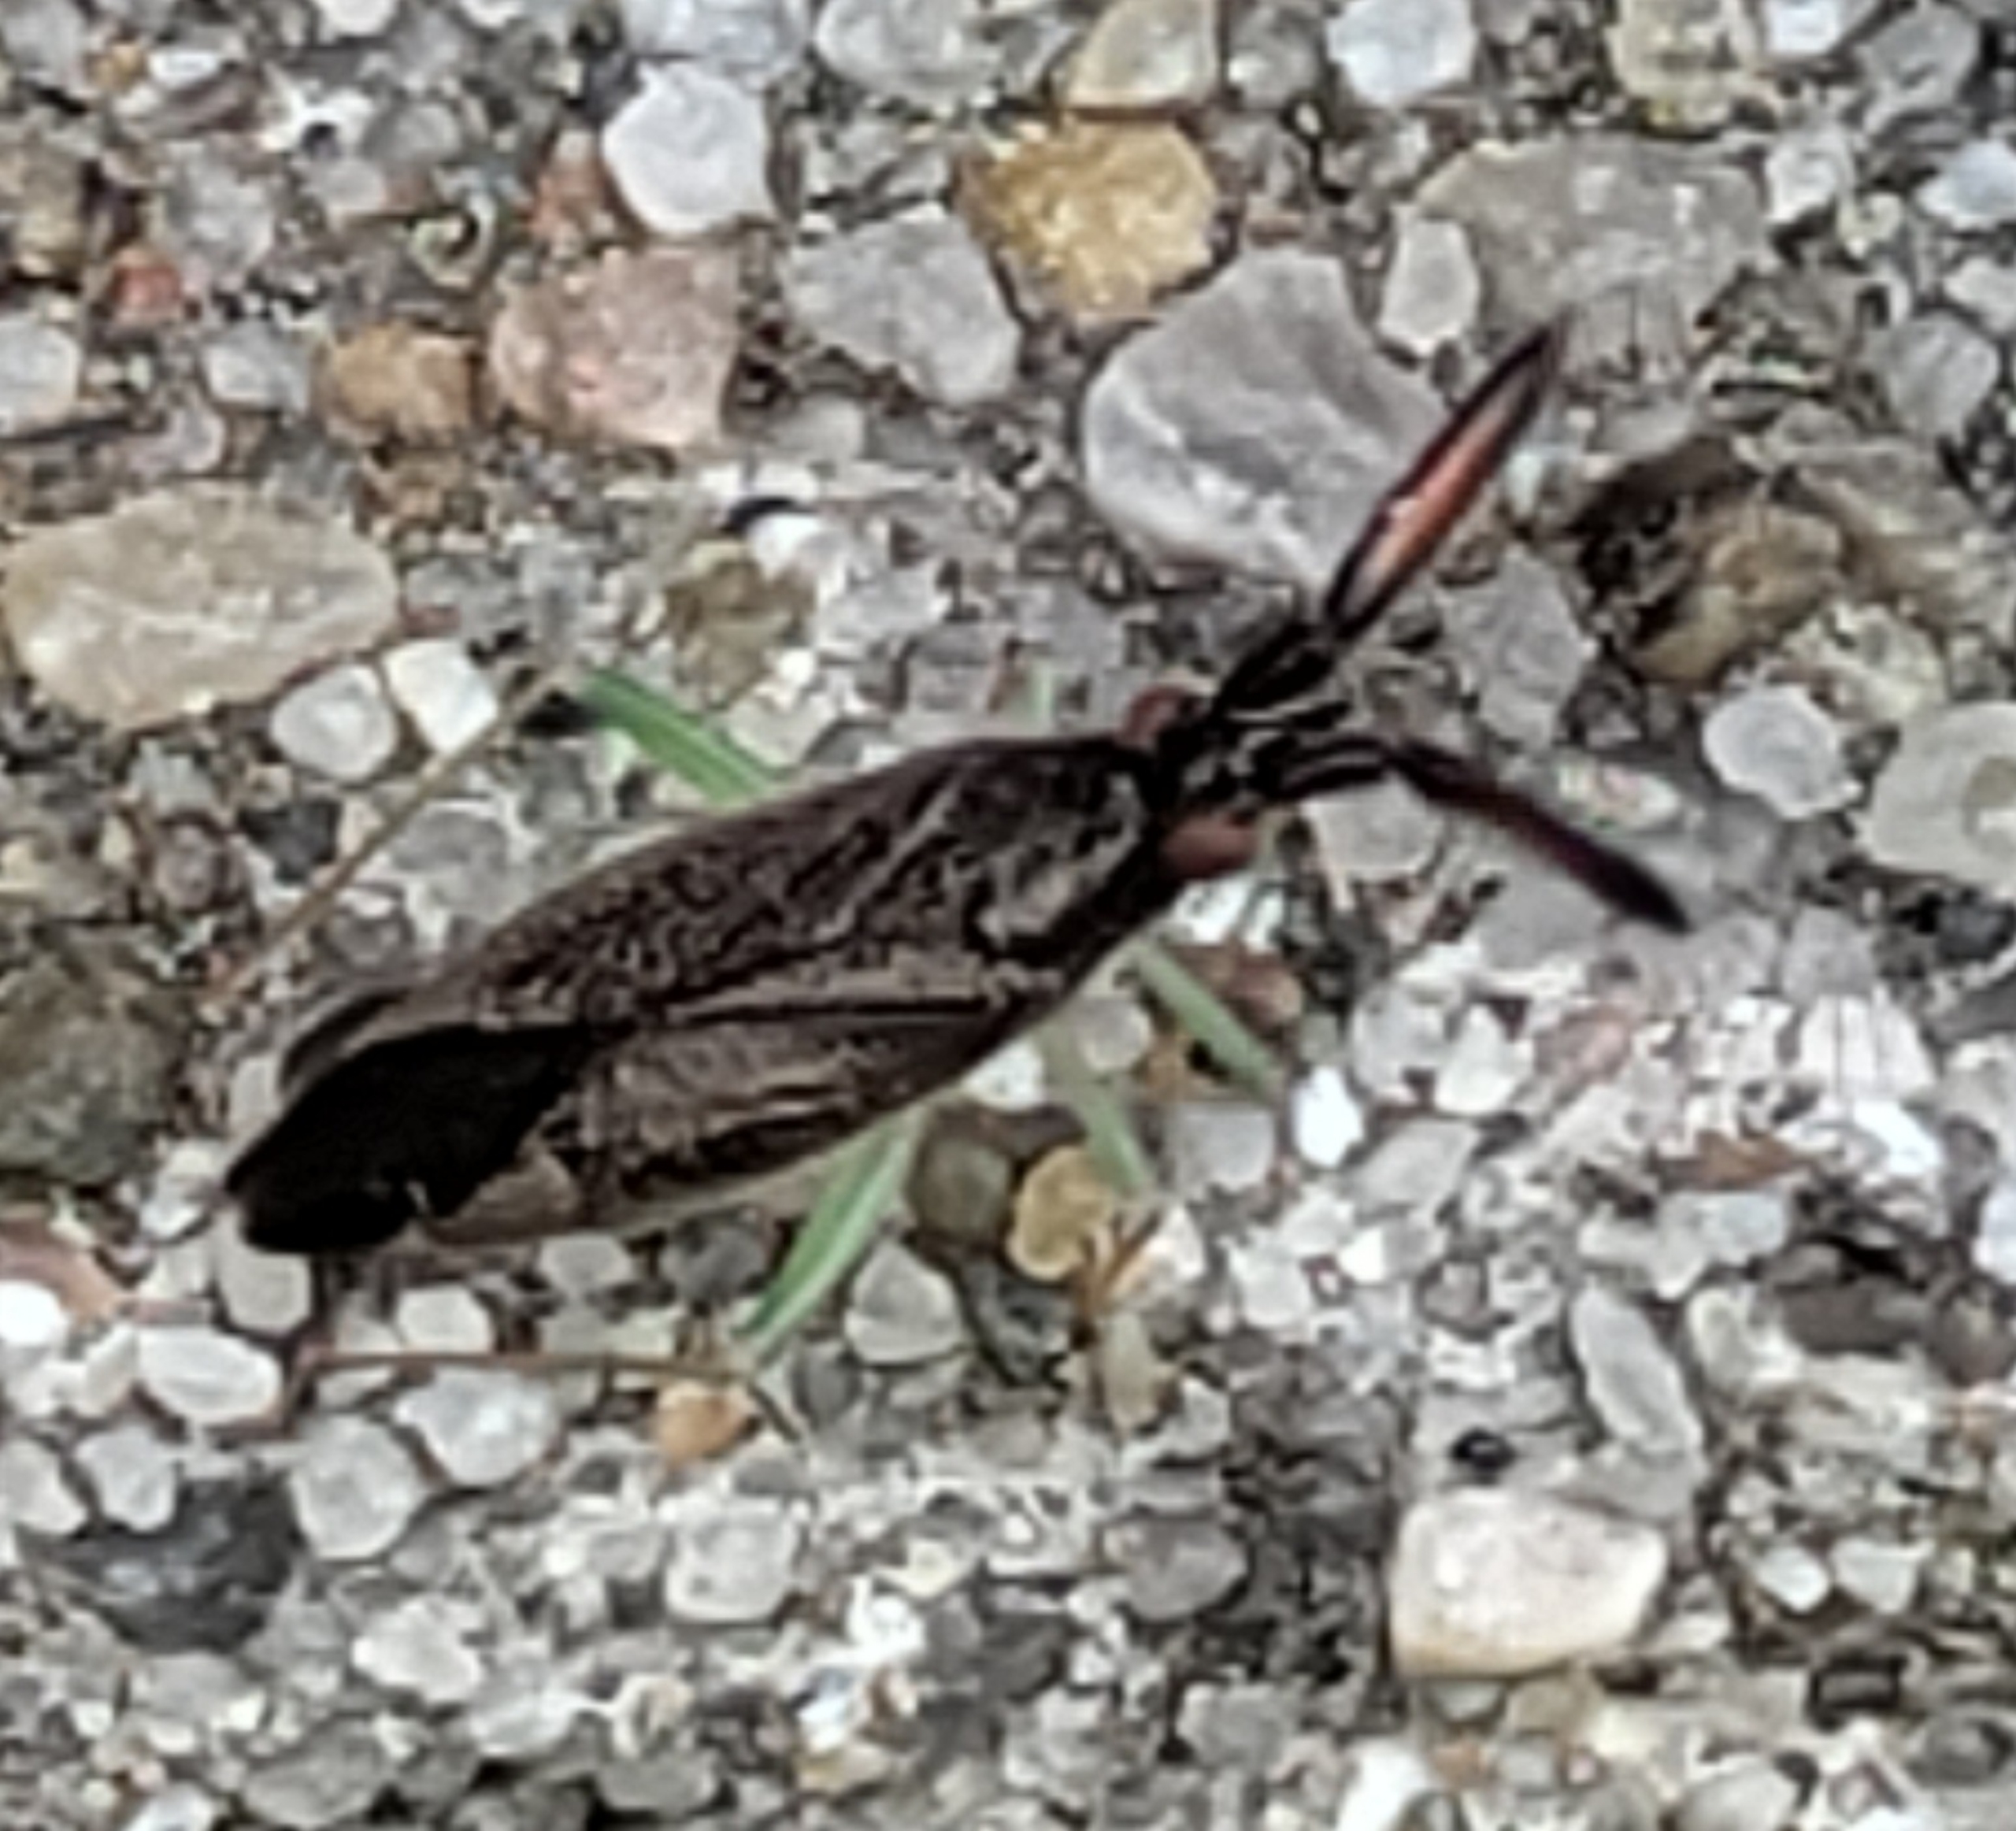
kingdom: Animalia
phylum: Arthropoda
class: Insecta
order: Hemiptera
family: Miridae
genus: Heterotoma
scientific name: Heterotoma planicornis
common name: Køllehornet blomstertæge
